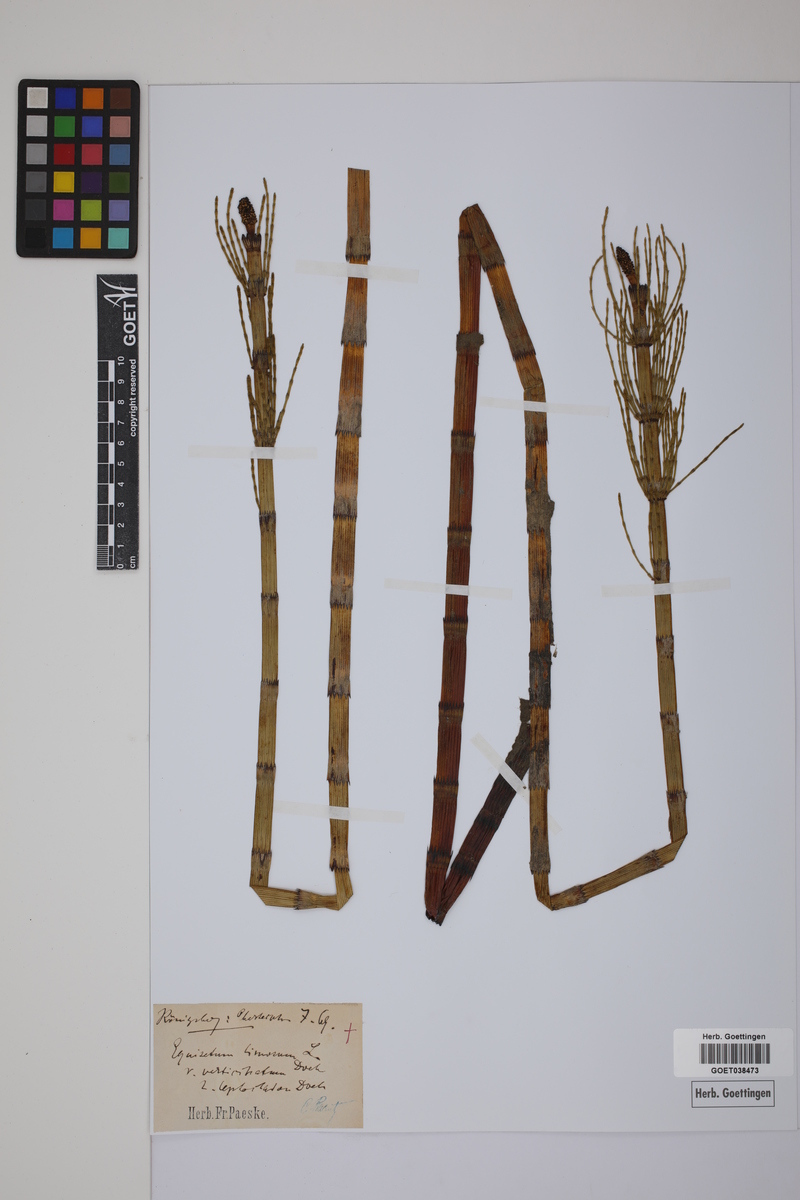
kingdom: Plantae
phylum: Tracheophyta
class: Polypodiopsida
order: Equisetales
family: Equisetaceae
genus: Equisetum
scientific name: Equisetum fluviatile
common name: Water horsetail
